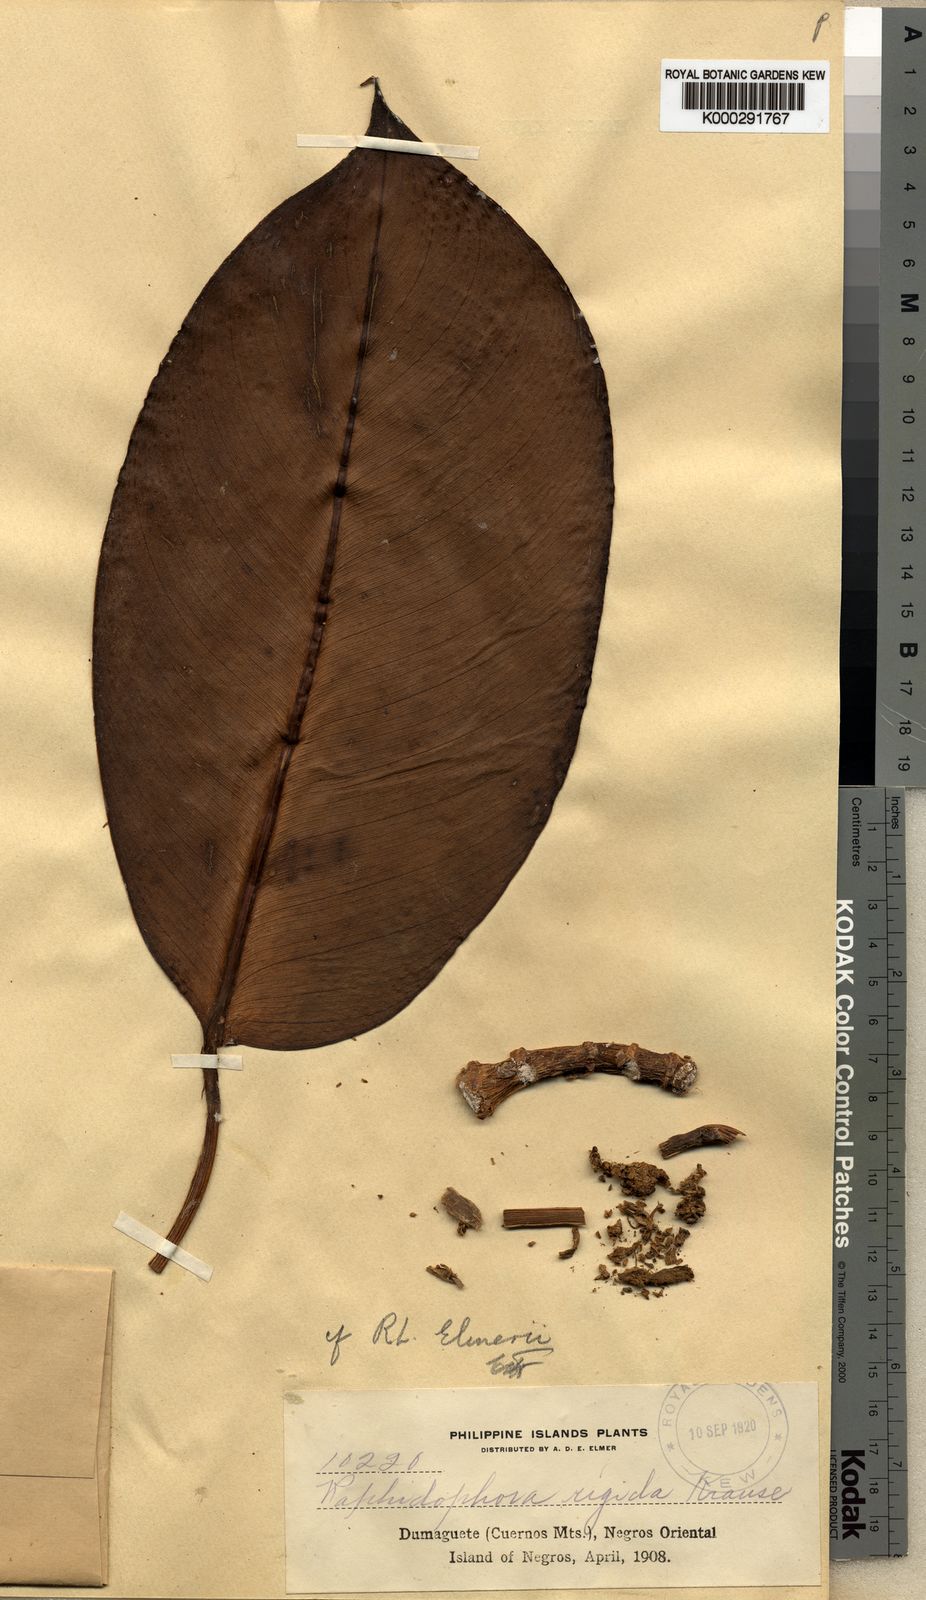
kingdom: Plantae
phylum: Tracheophyta
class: Liliopsida
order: Alismatales
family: Araceae
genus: Rhaphidophora
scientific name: Rhaphidophora philippinensis
